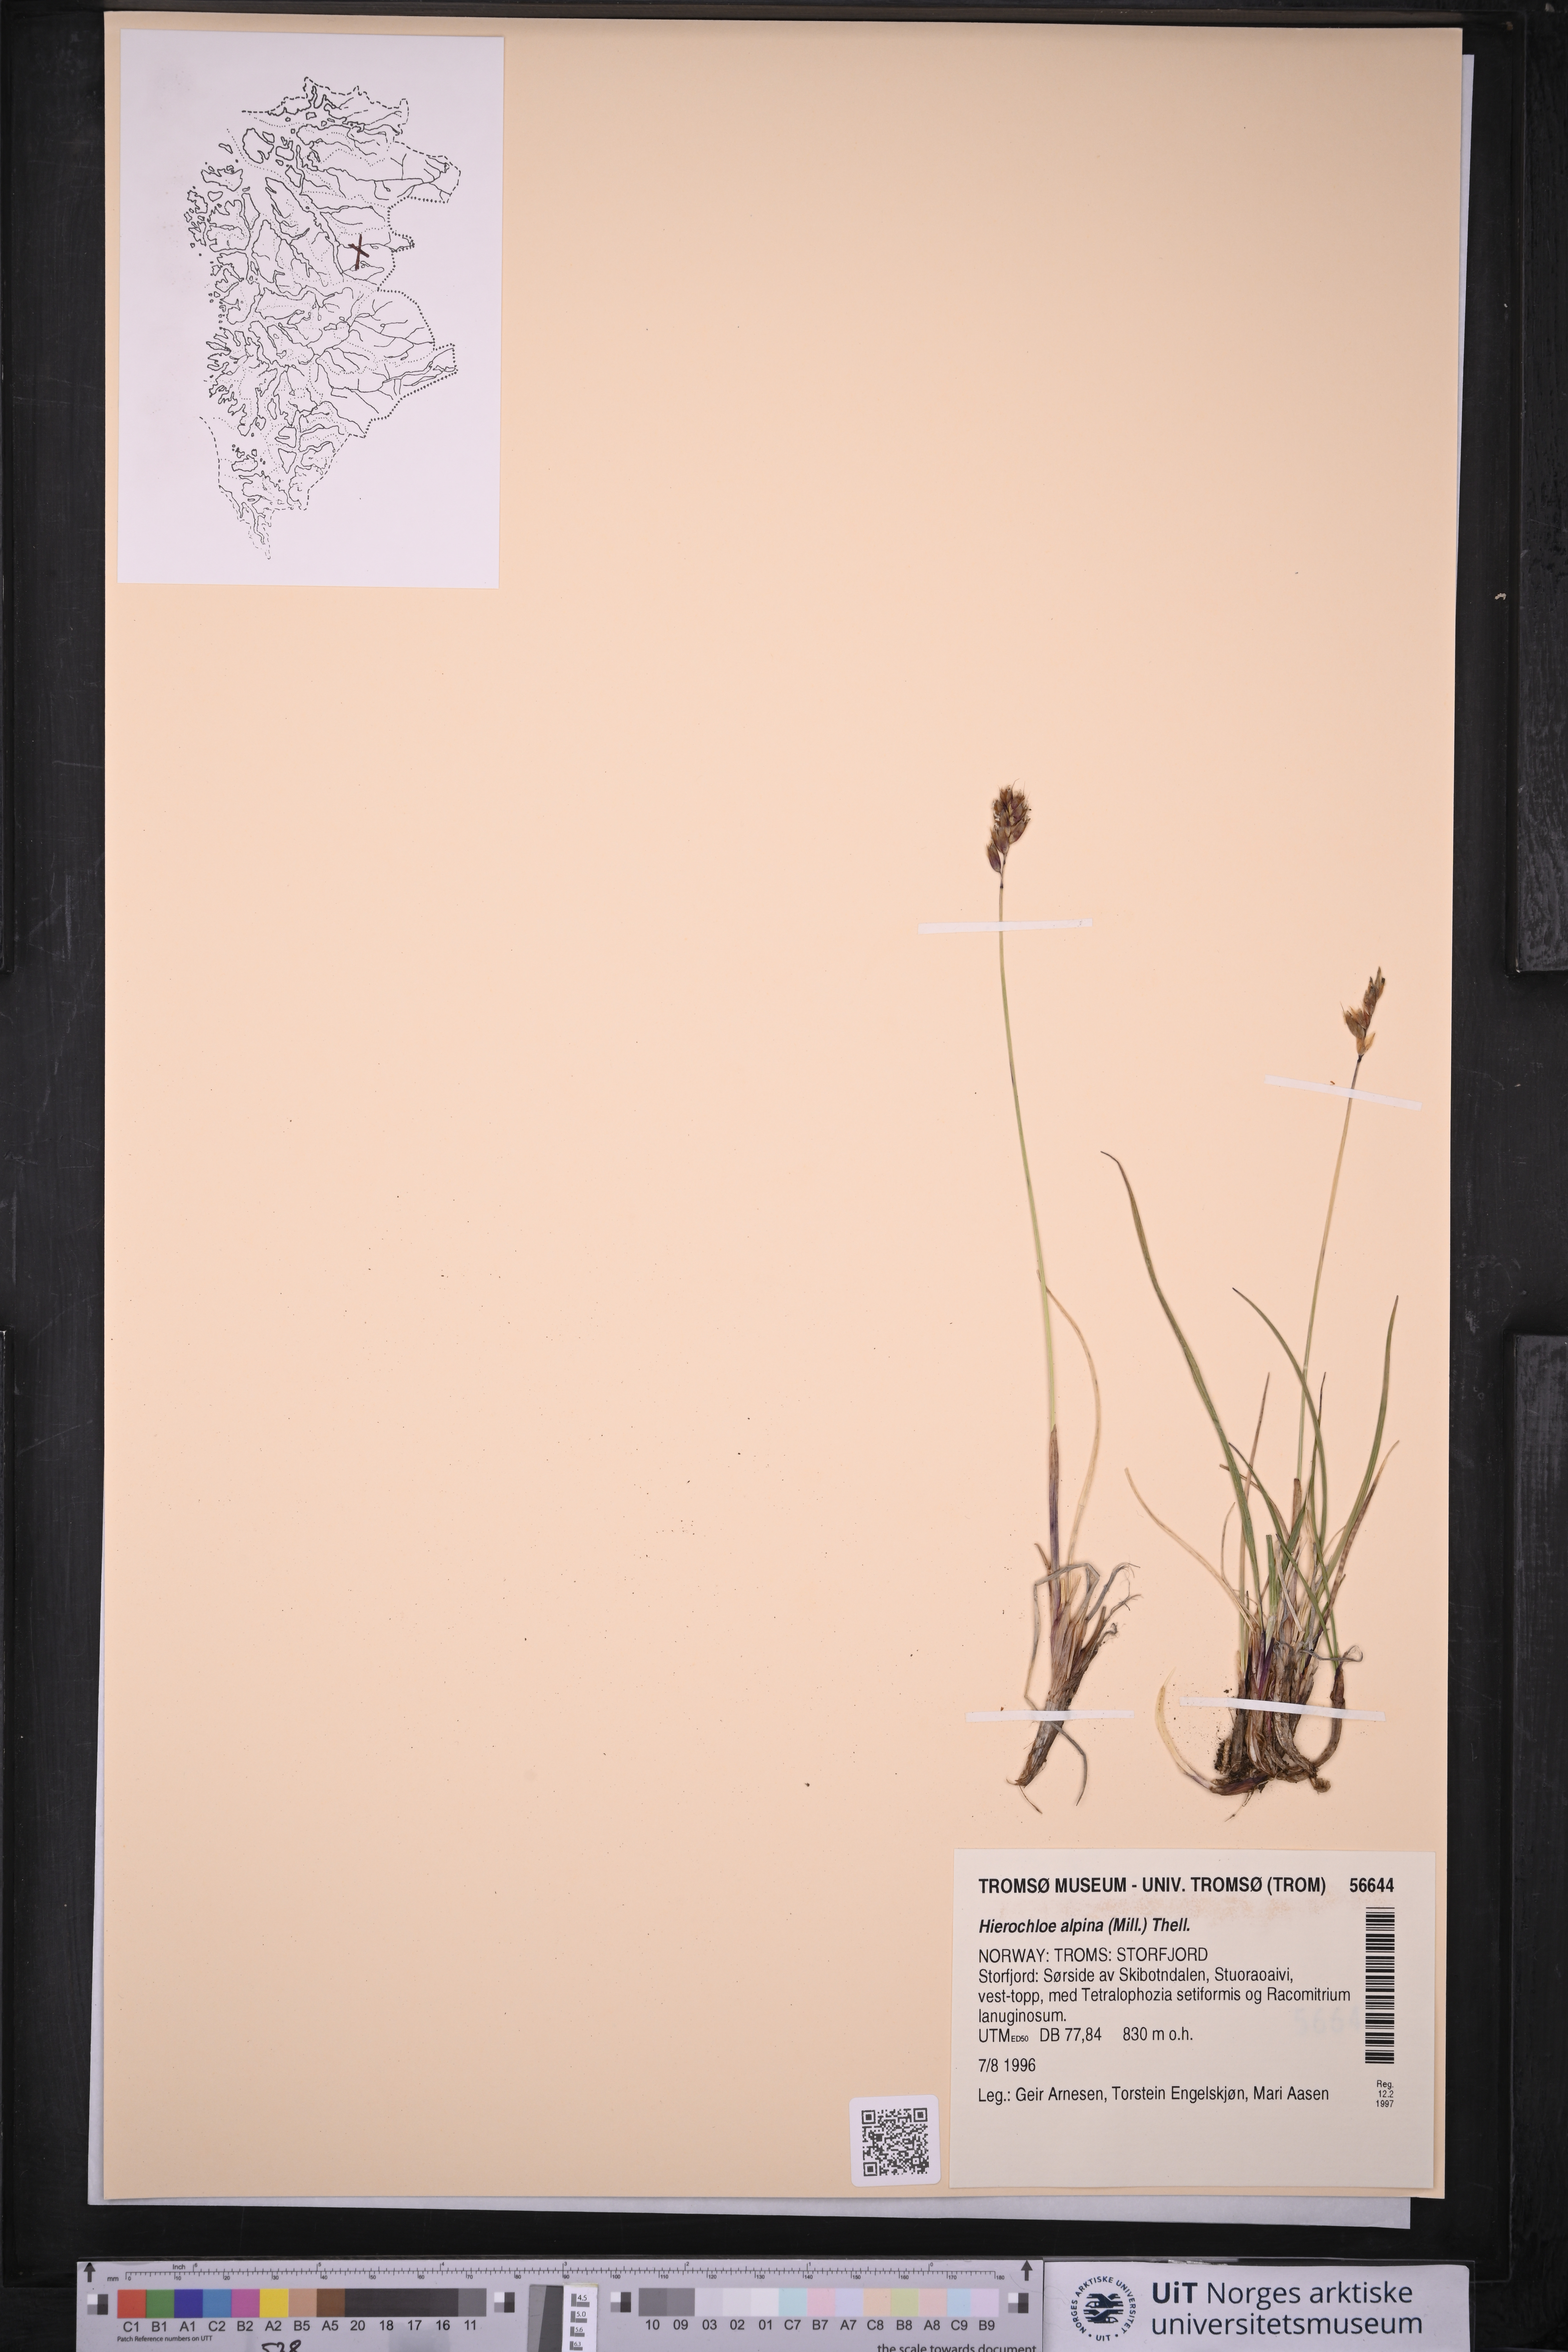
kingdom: Plantae
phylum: Tracheophyta
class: Liliopsida
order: Poales
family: Poaceae
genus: Anthoxanthum
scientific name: Anthoxanthum monticola
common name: Alpine sweetgrass
